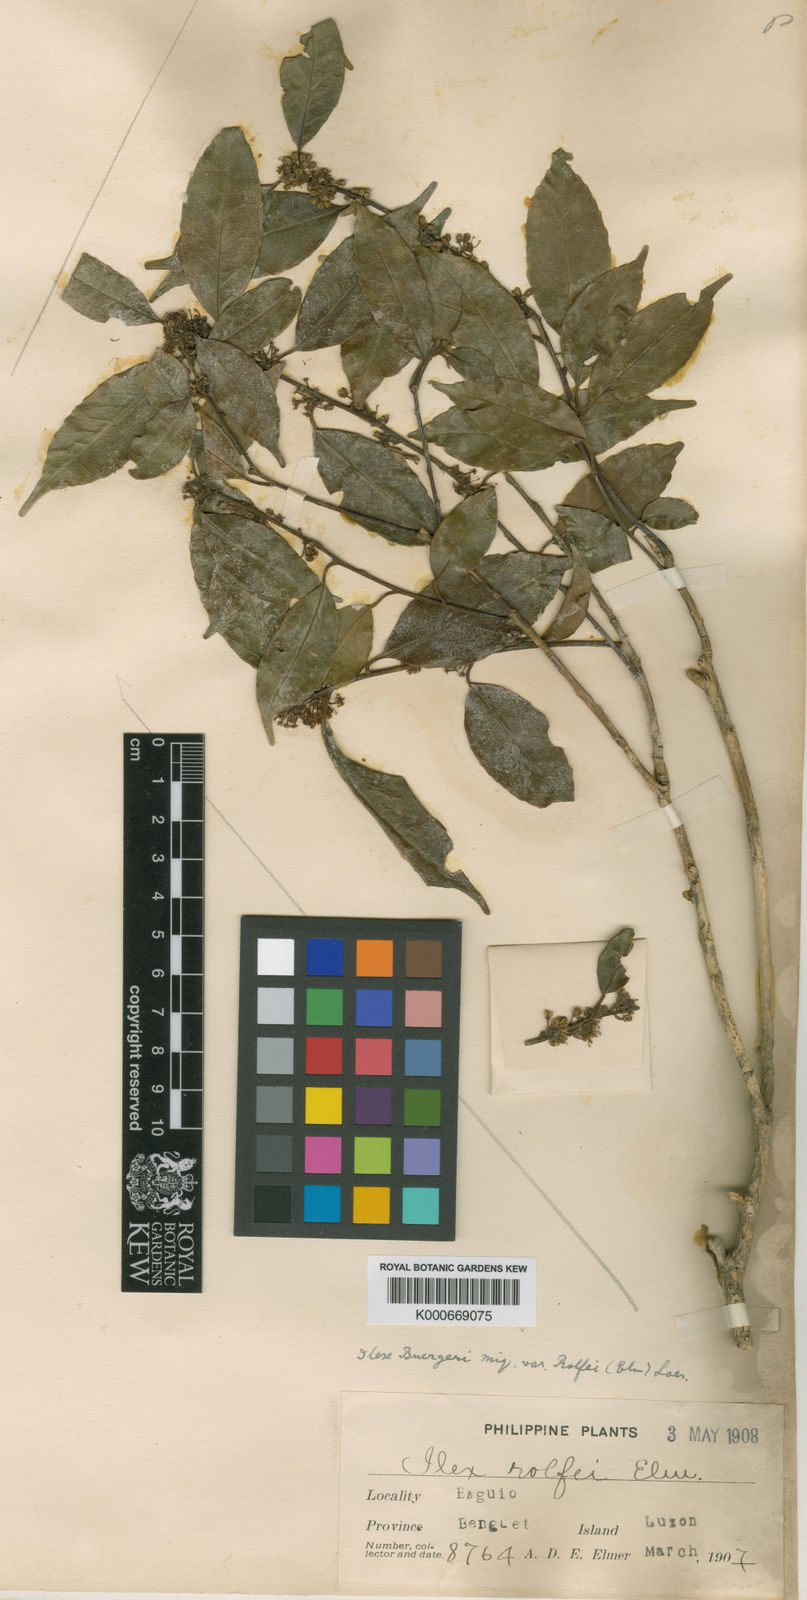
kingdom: Plantae
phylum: Tracheophyta
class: Magnoliopsida
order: Aquifoliales
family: Aquifoliaceae
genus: Ilex
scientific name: Ilex buergeri
